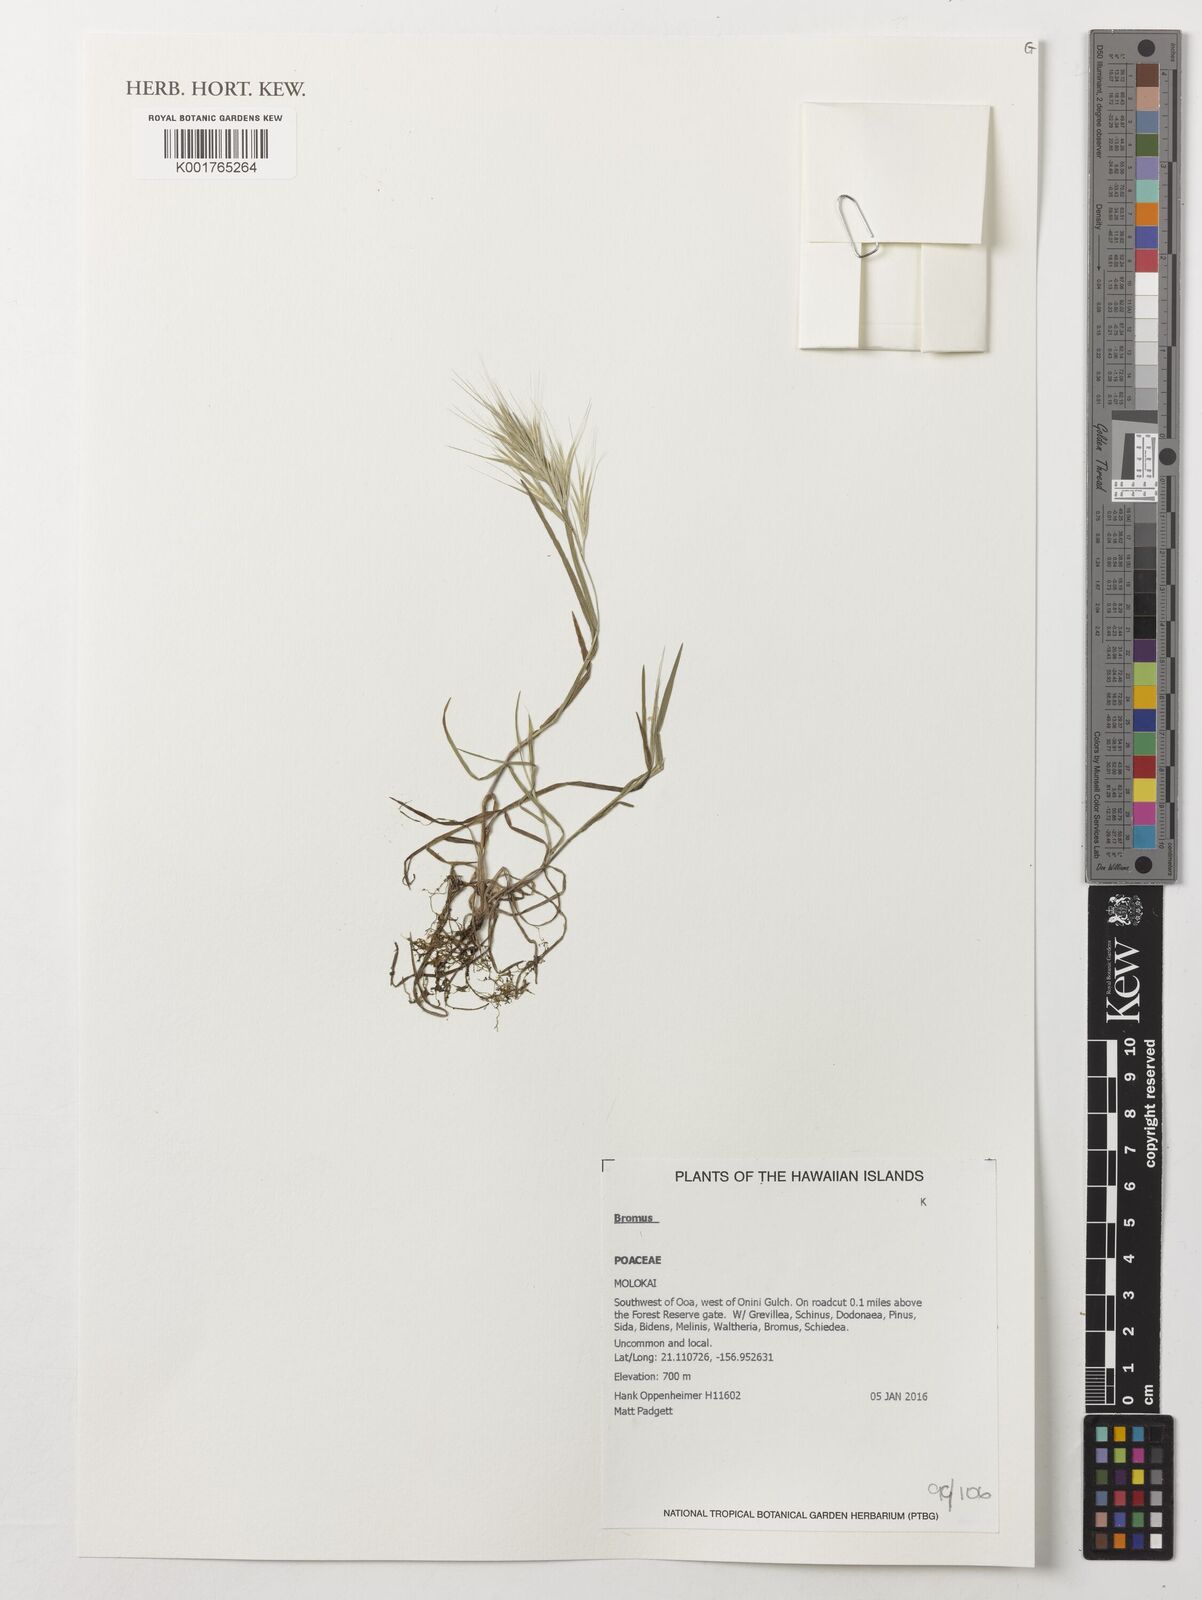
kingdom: Plantae
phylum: Tracheophyta
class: Liliopsida
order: Poales
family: Poaceae
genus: Bromus
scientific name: Bromus
